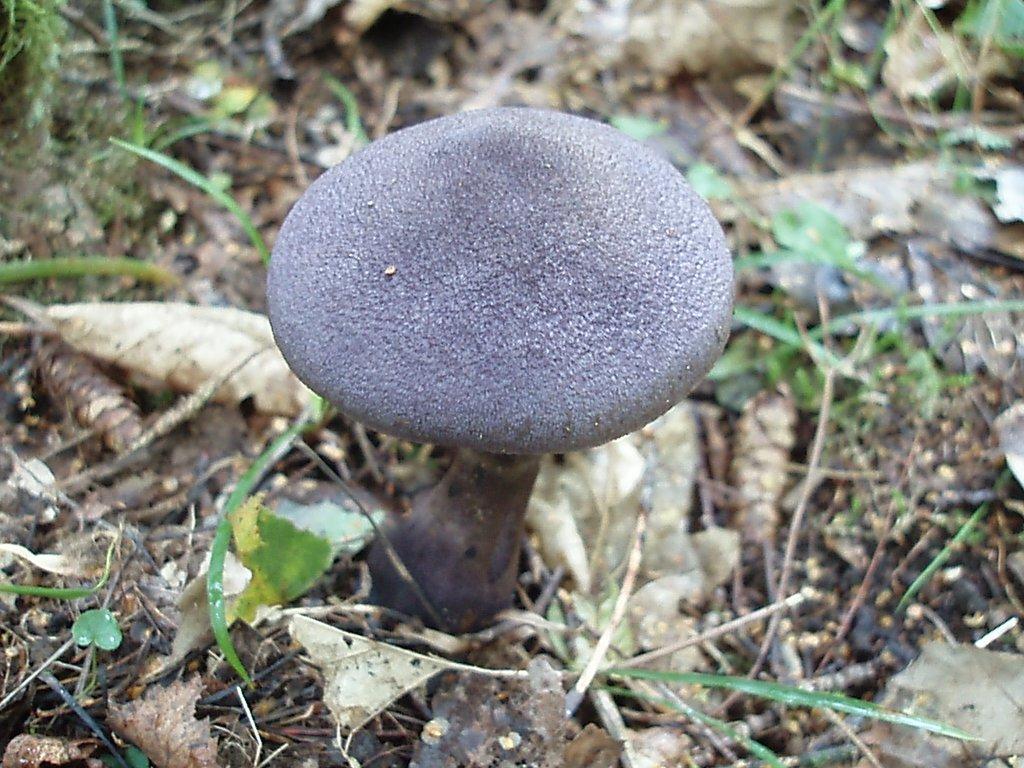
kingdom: Fungi
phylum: Basidiomycota
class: Agaricomycetes
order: Agaricales
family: Cortinariaceae
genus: Cortinarius
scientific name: Cortinarius violaceus
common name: mørkviolet slørhat
